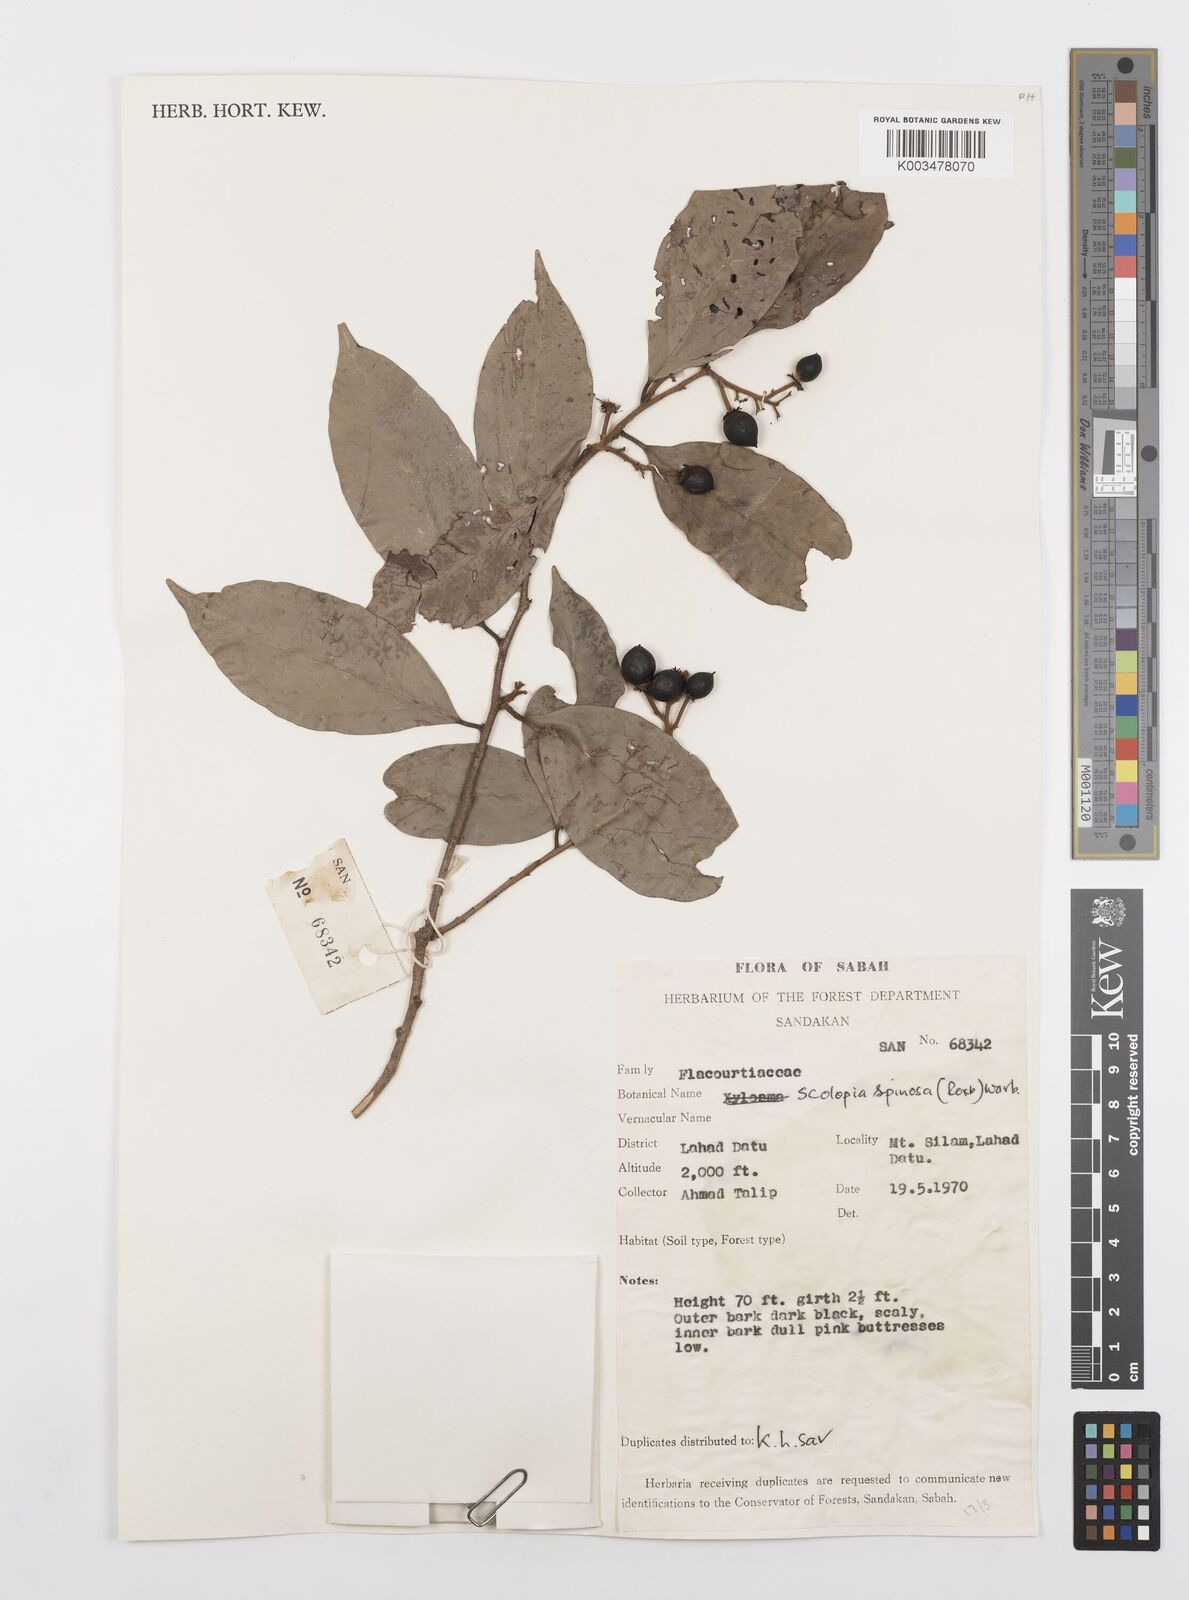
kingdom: Plantae
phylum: Tracheophyta
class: Magnoliopsida
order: Malpighiales
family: Salicaceae
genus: Scolopia
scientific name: Scolopia spinosa
